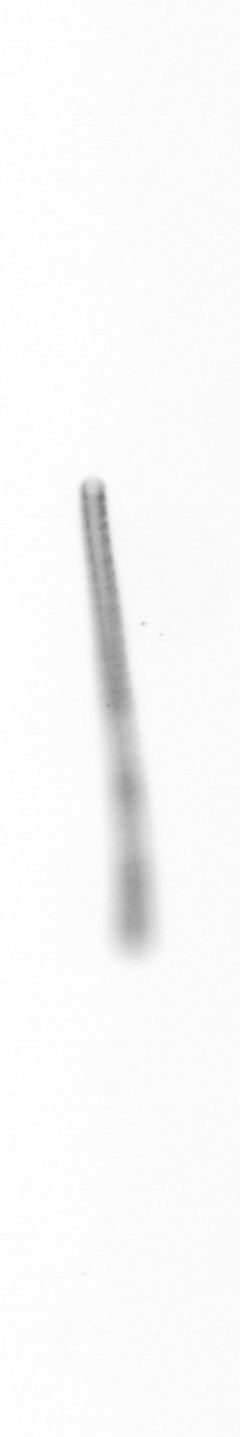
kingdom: Chromista
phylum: Ochrophyta
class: Bacillariophyceae
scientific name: Bacillariophyceae
